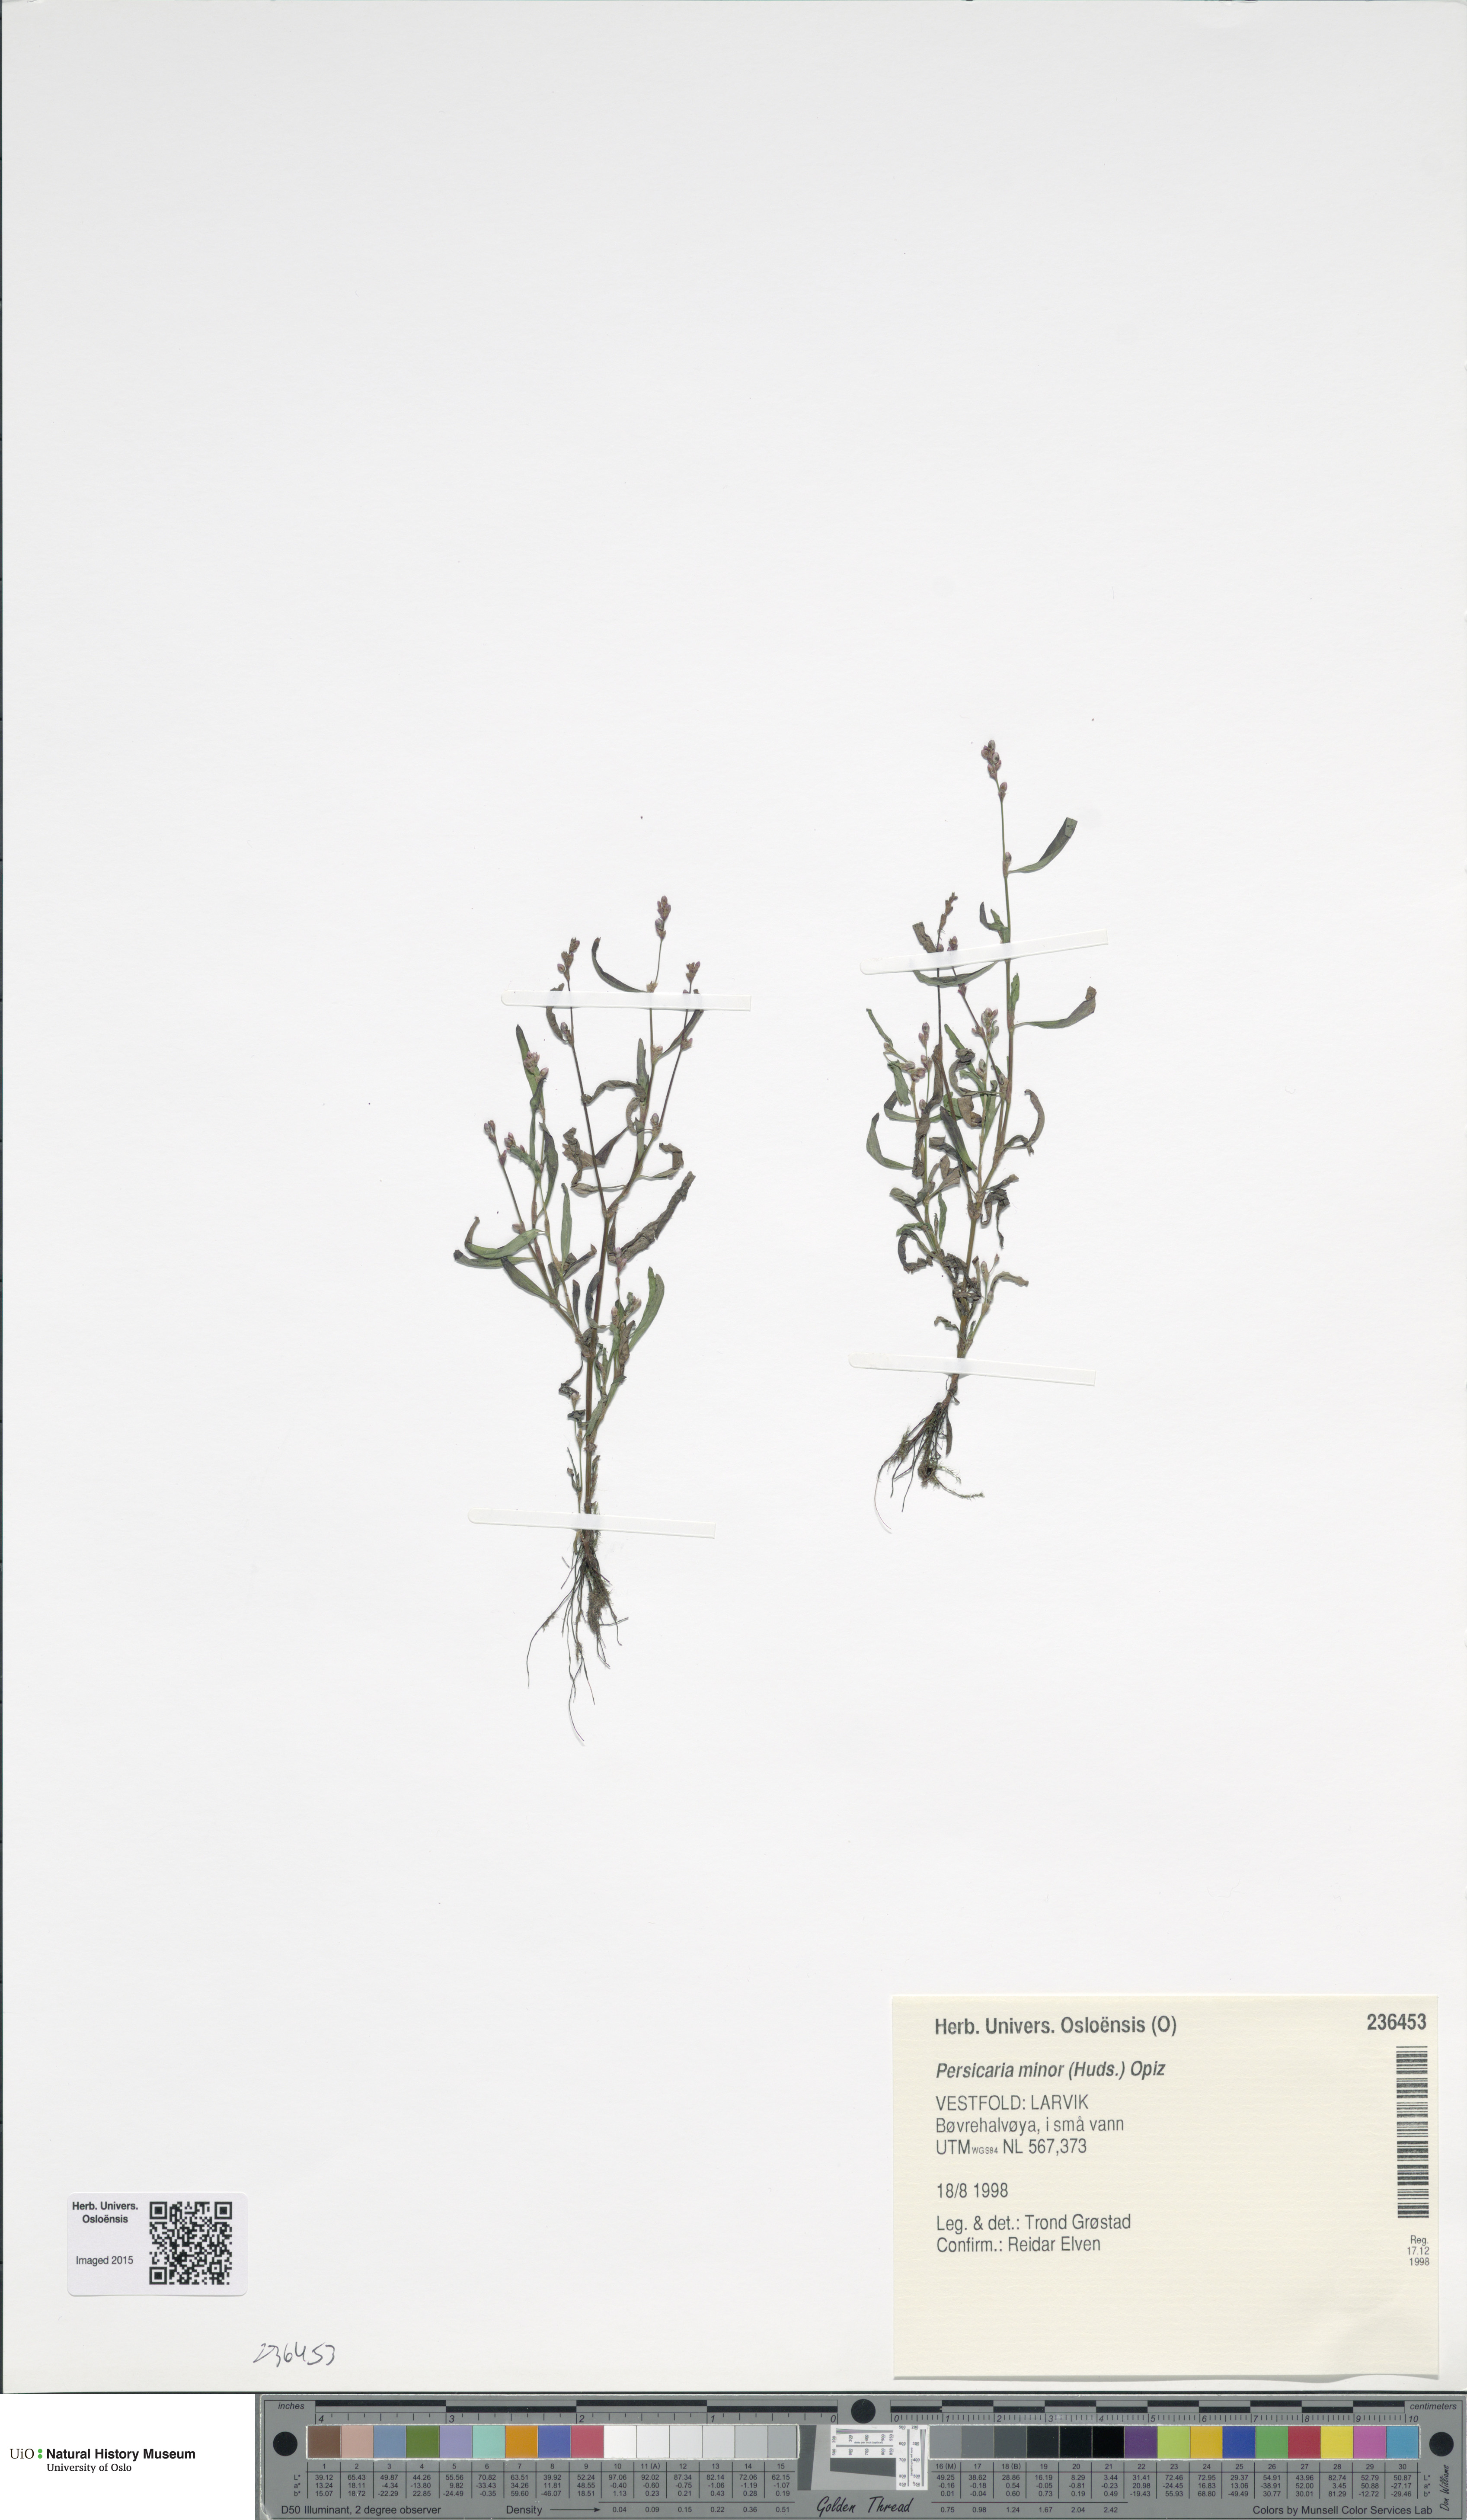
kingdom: Plantae
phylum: Tracheophyta
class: Magnoliopsida
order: Caryophyllales
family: Polygonaceae
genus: Persicaria
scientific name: Persicaria minor
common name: Small water-pepper
